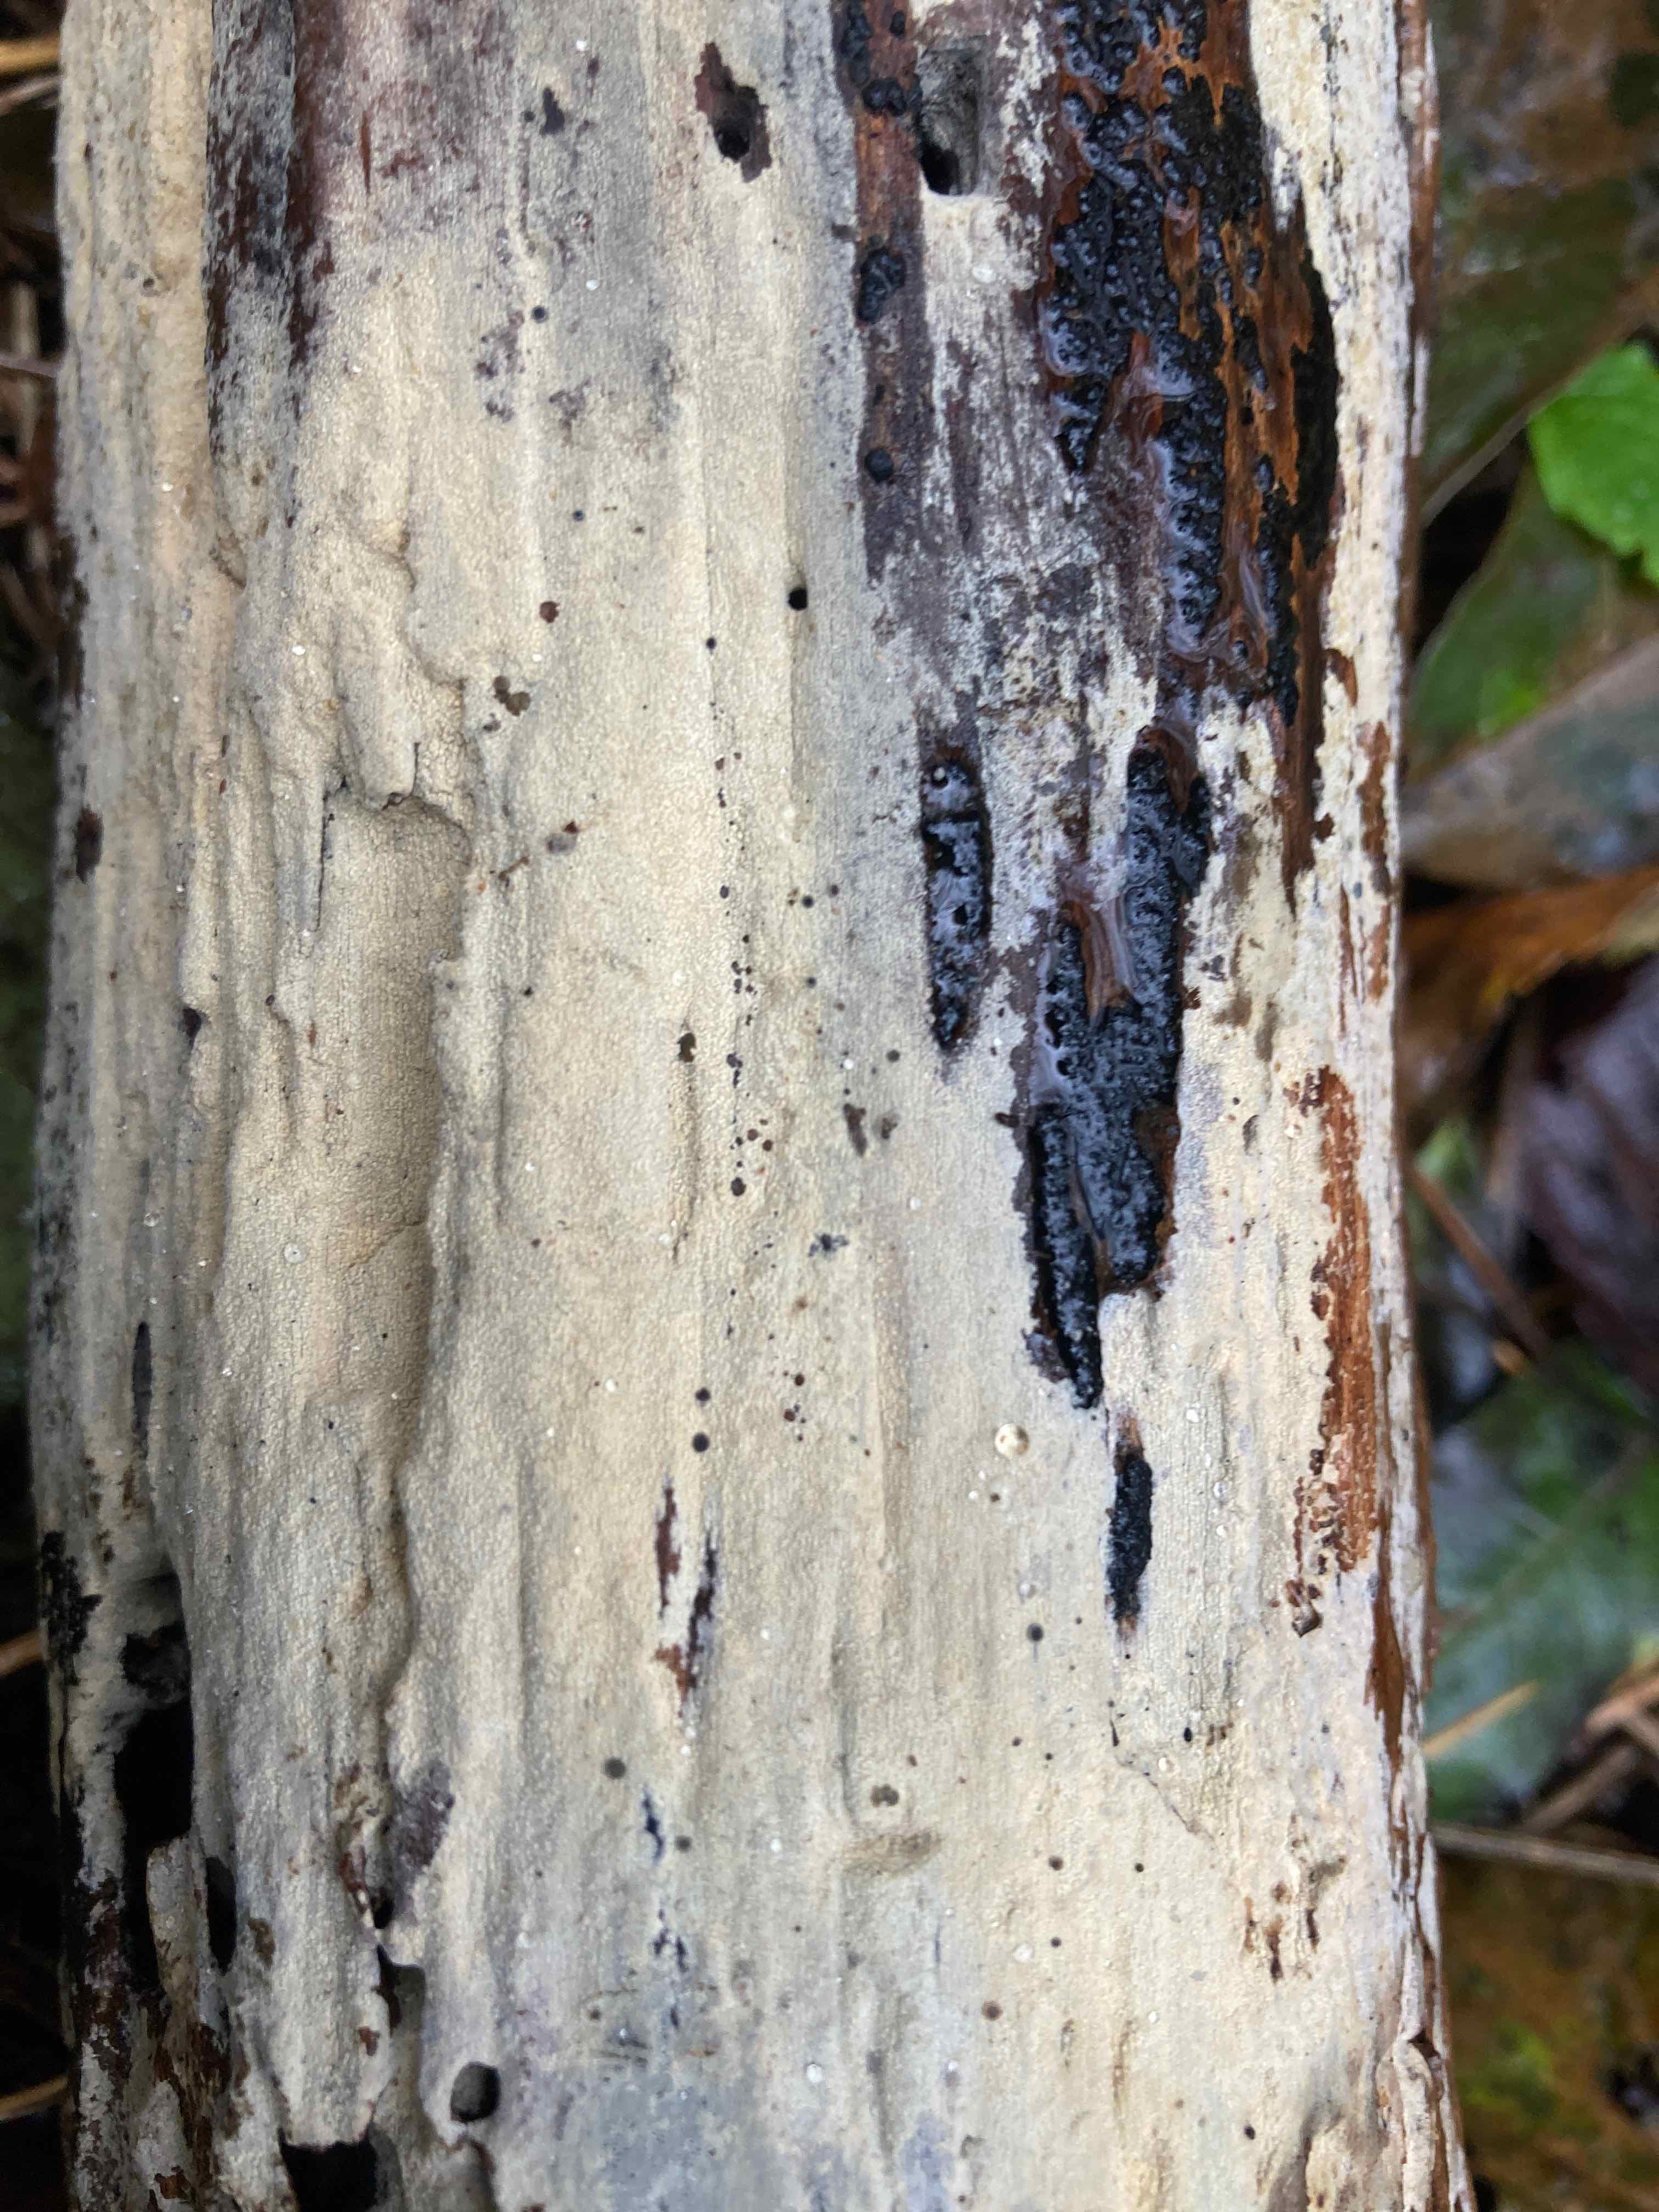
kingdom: Fungi
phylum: Basidiomycota
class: Agaricomycetes
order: Corticiales
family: Corticiaceae
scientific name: Corticiaceae
